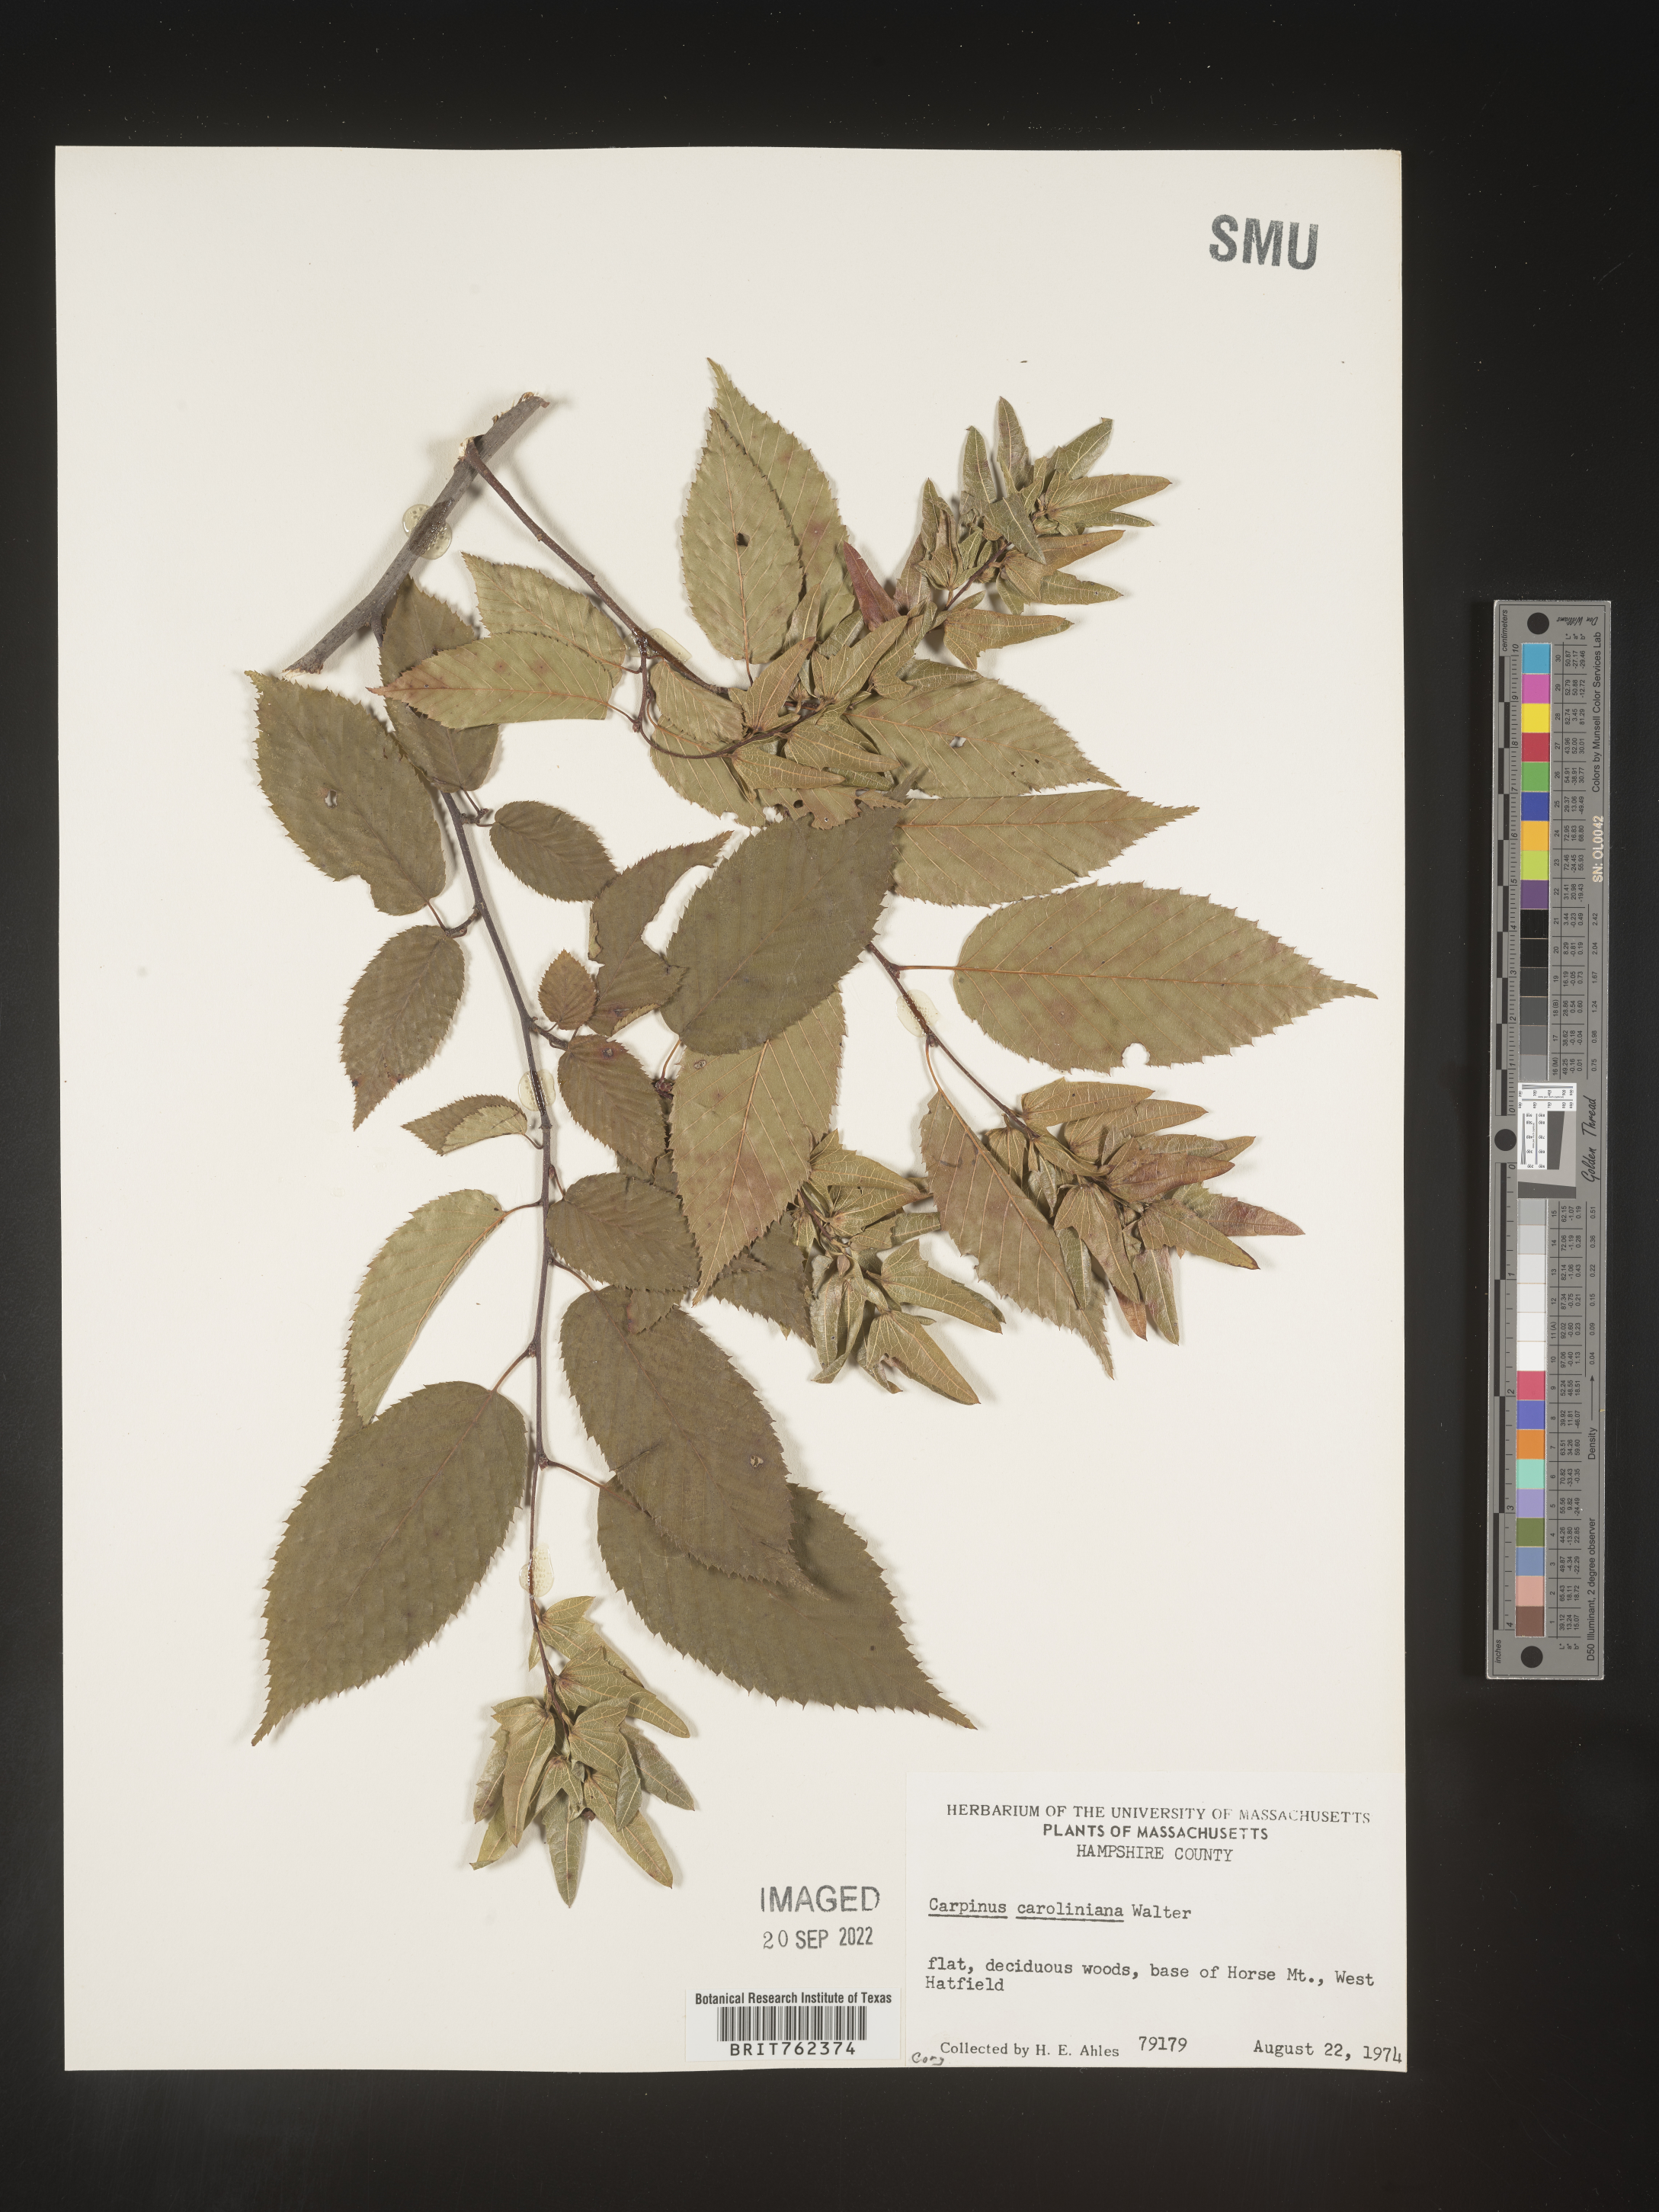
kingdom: Plantae
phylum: Tracheophyta
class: Magnoliopsida
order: Fagales
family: Betulaceae
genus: Carpinus
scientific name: Carpinus caroliniana
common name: American hornbeam
